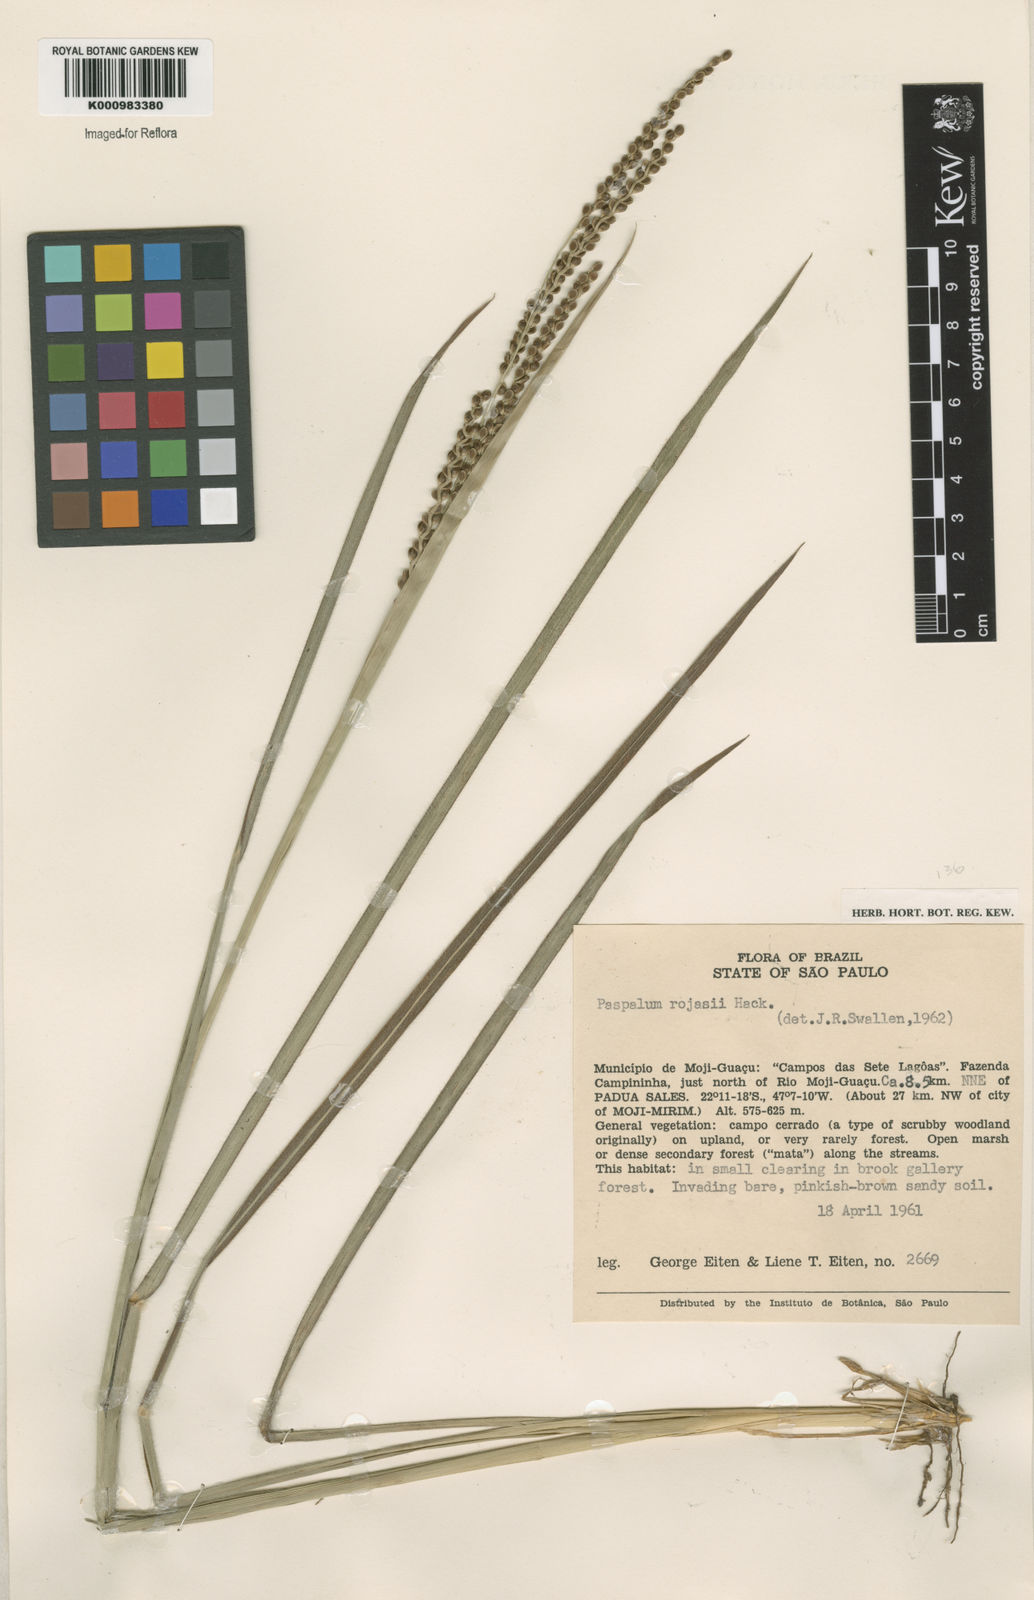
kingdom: Plantae
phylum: Tracheophyta
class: Liliopsida
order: Poales
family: Poaceae
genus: Paspalum
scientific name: Paspalum guenoarum
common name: Wintergreen paspalum
